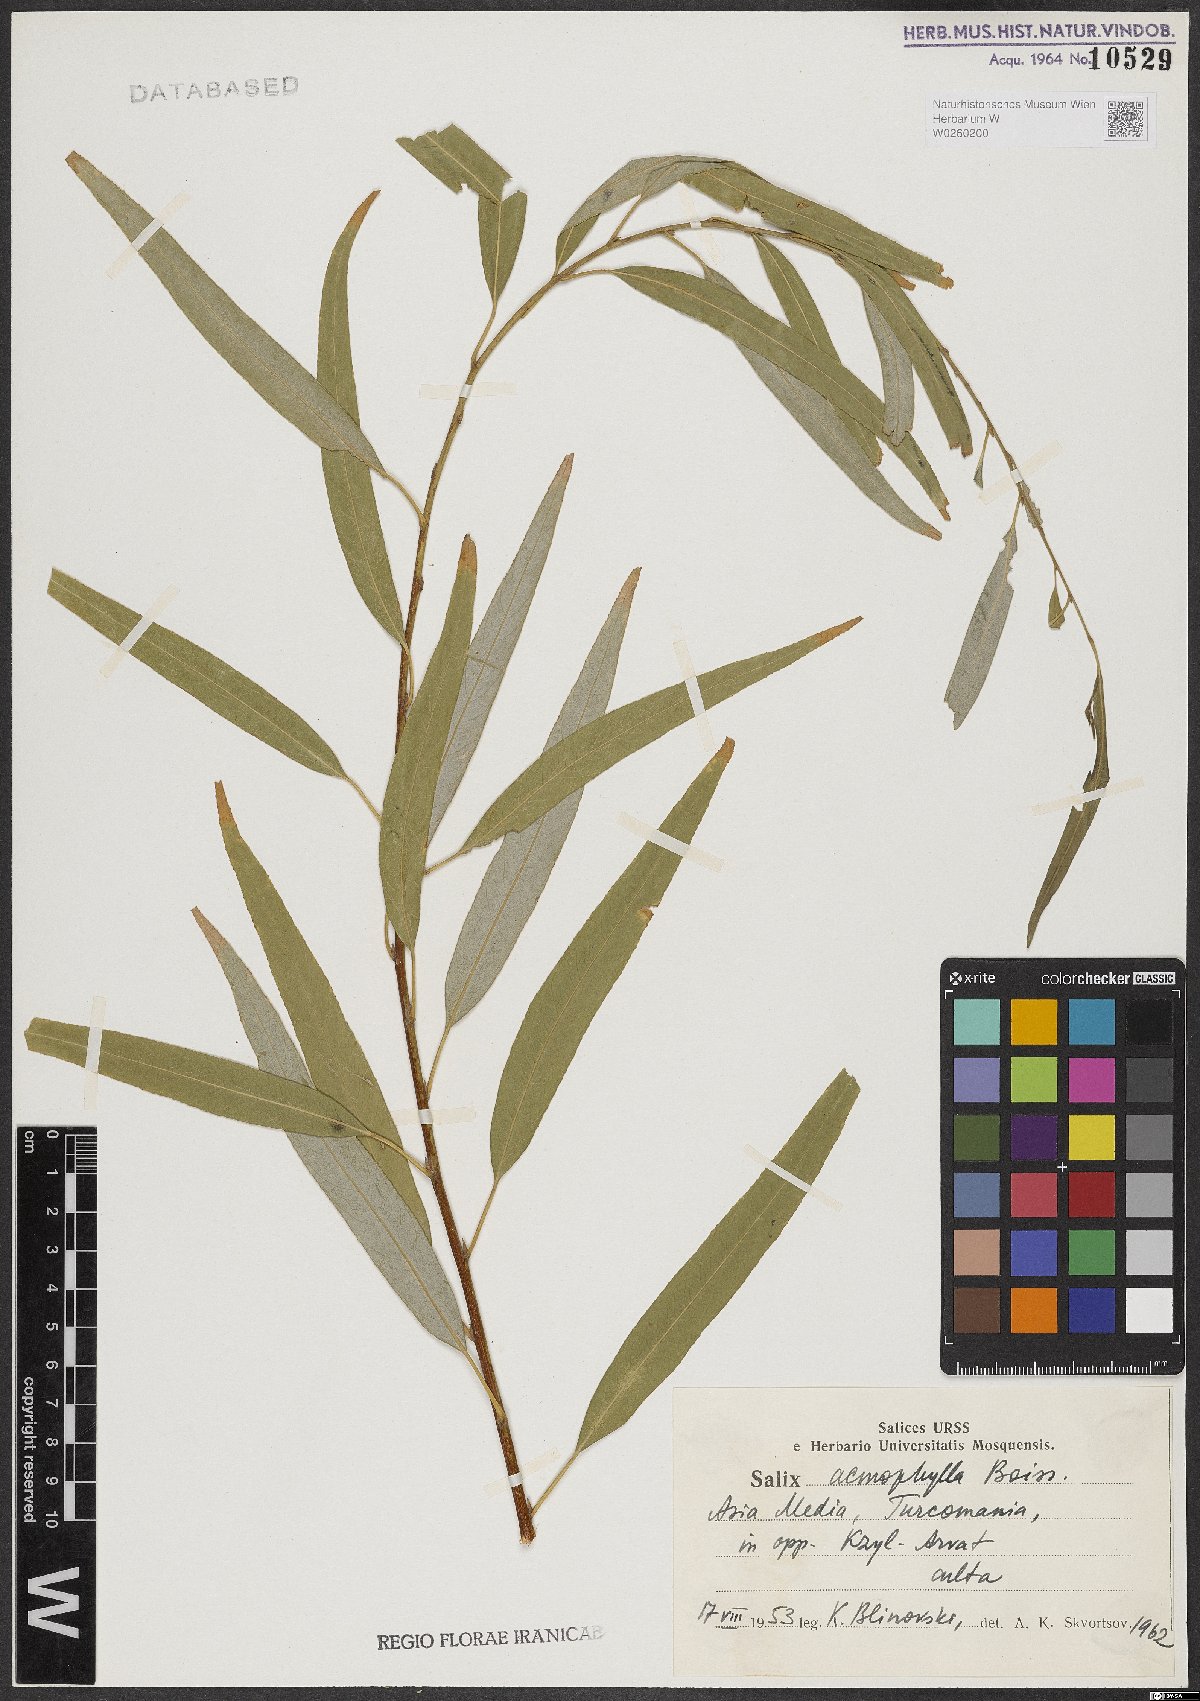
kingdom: Plantae
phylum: Tracheophyta
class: Magnoliopsida
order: Malpighiales
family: Salicaceae
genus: Salix
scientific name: Salix acmophylla
